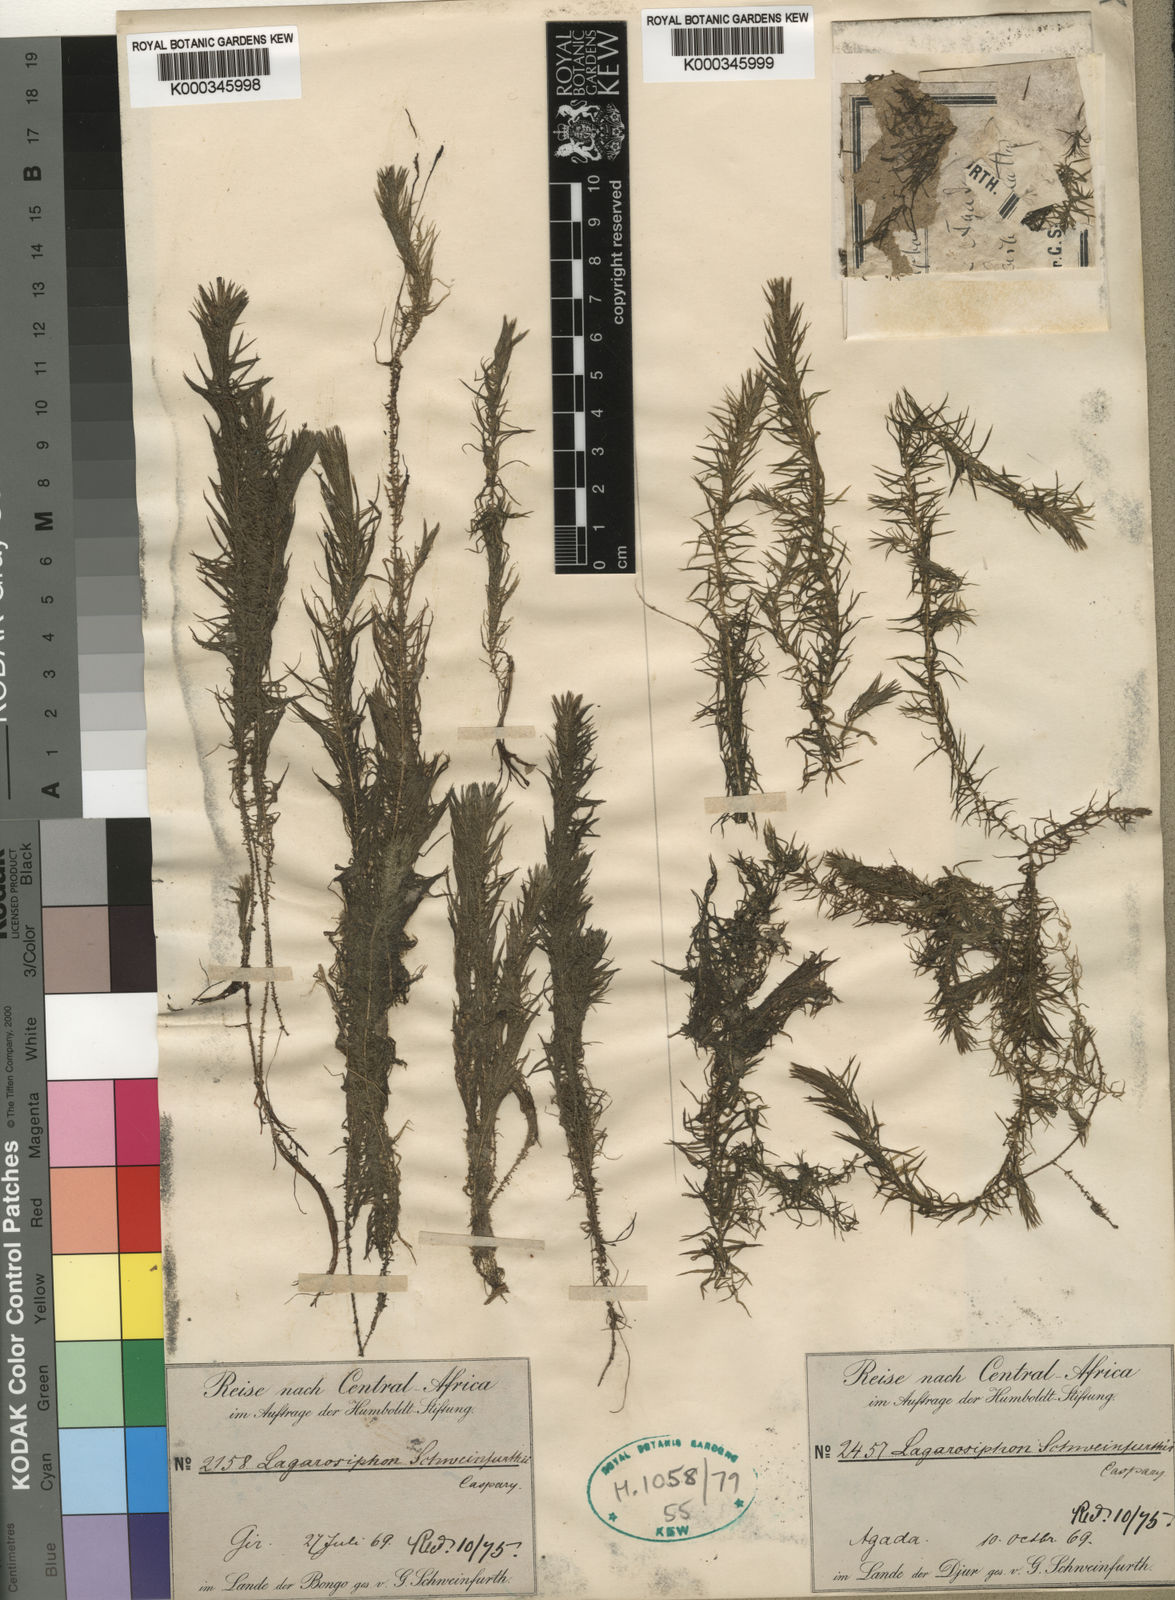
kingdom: Plantae
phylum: Tracheophyta
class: Liliopsida
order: Alismatales
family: Hydrocharitaceae
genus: Lagarosiphon
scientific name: Lagarosiphon muscoides
